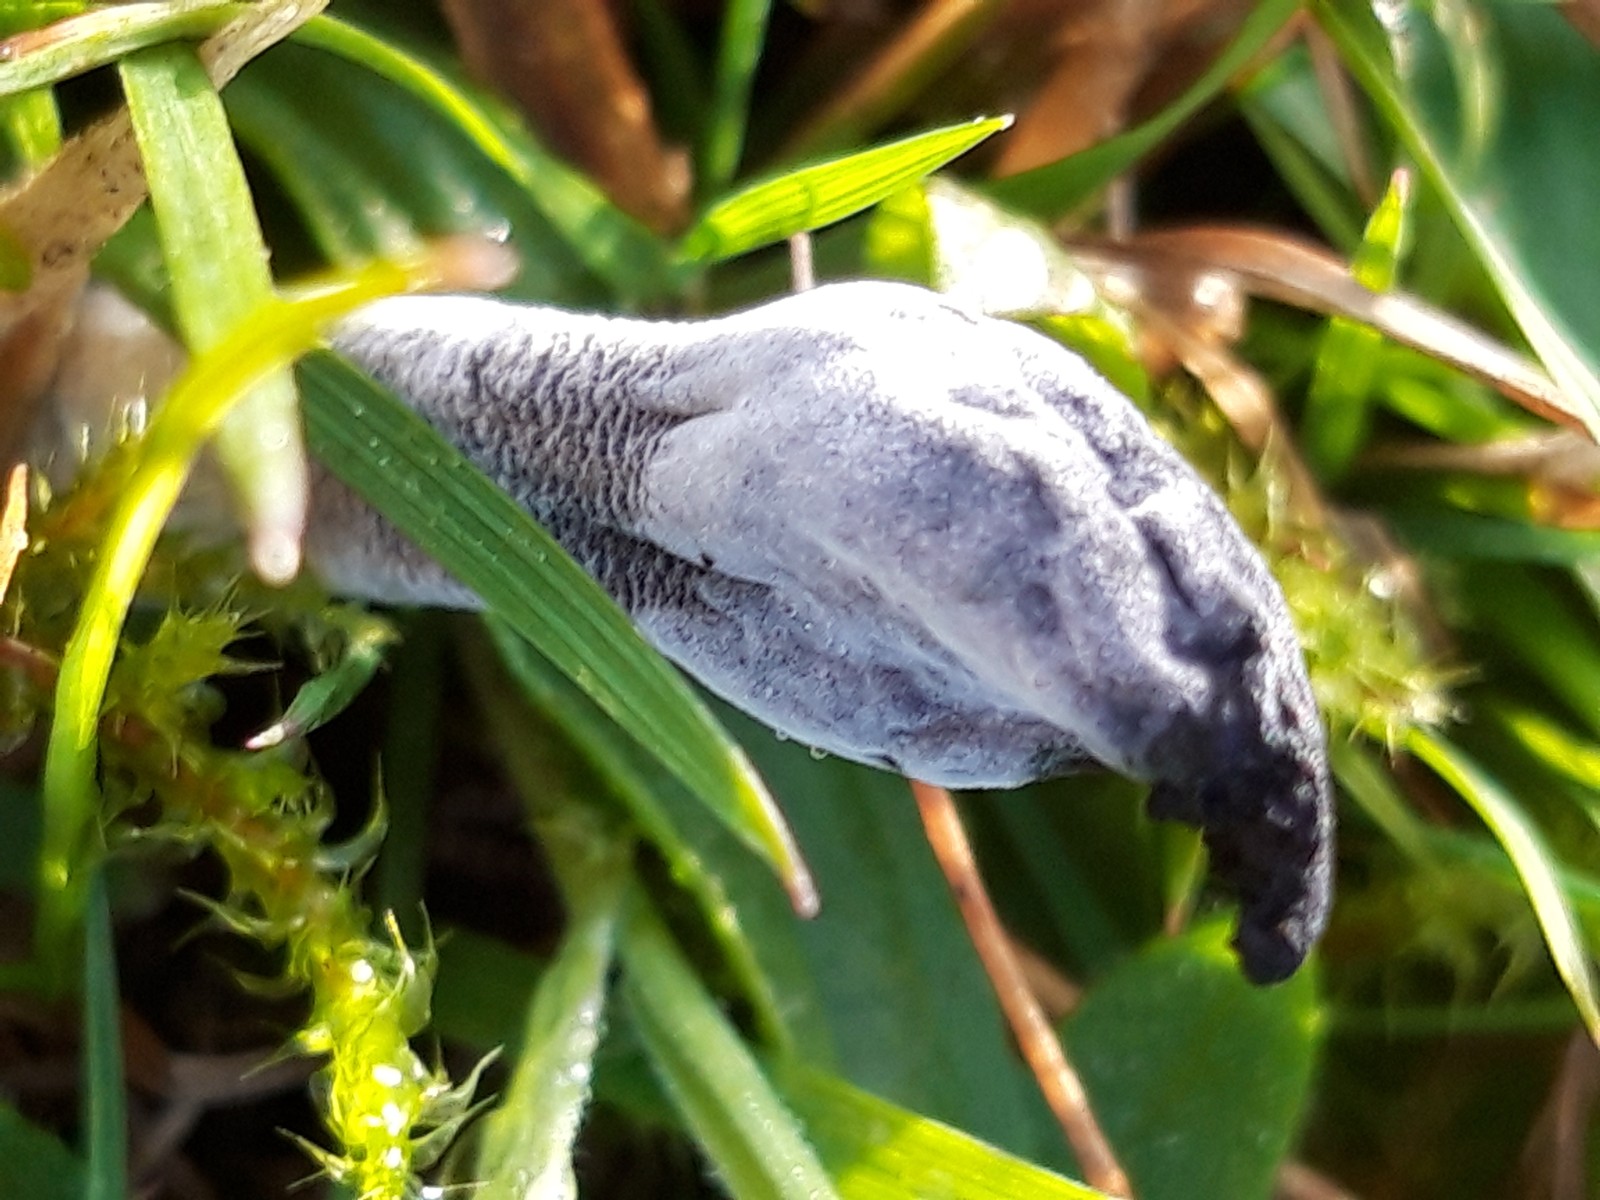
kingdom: Fungi
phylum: Ascomycota
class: Sordariomycetes
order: Hypocreales
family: Hypocreaceae
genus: Hypomyces
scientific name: Hypomyces papulasporae
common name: jordtunge-snylteskorpe
